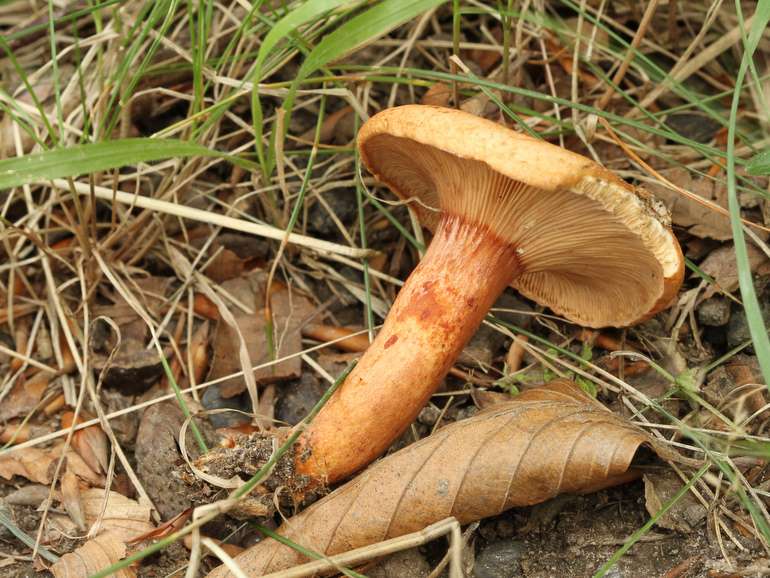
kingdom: Fungi
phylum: Basidiomycota
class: Agaricomycetes
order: Russulales
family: Russulaceae
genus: Lactarius
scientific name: Lactarius rubrocinctus
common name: halsbånd-mælkehat
